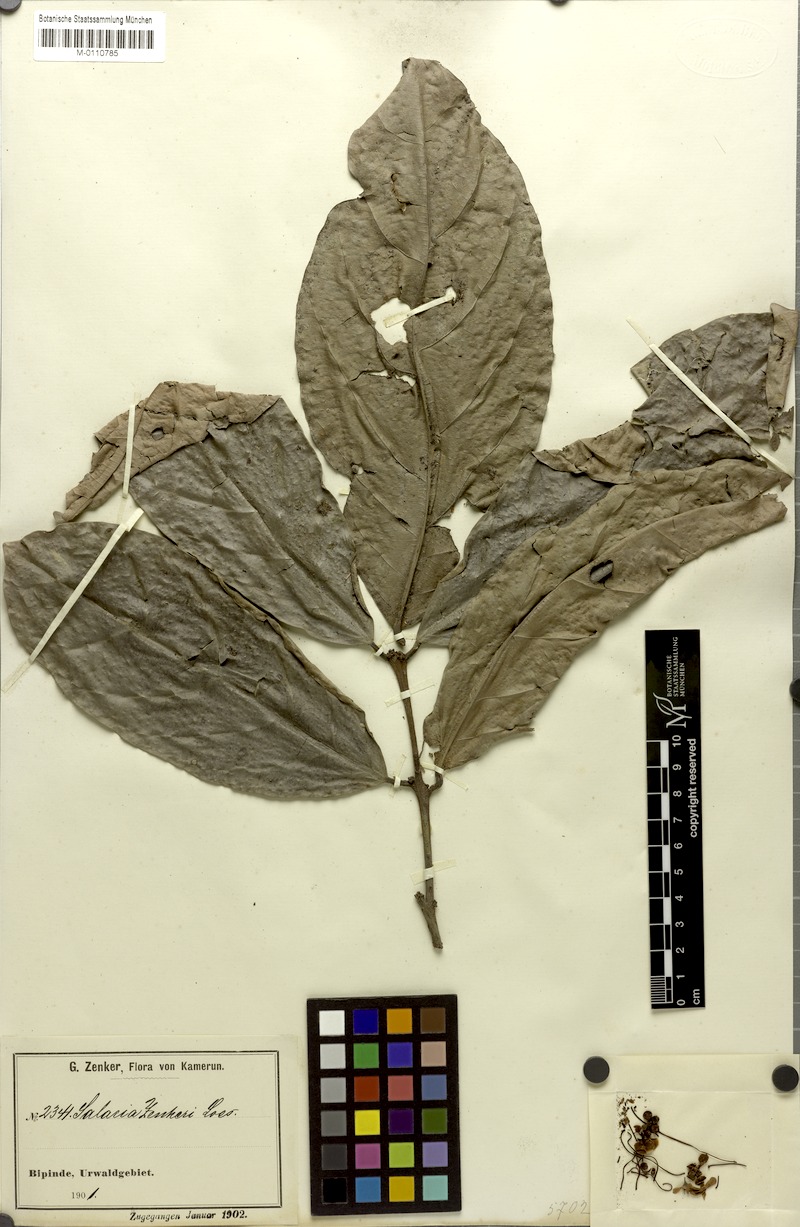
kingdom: Plantae
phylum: Tracheophyta
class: Magnoliopsida
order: Celastrales
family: Celastraceae
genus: Salacia
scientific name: Salacia zenkeri
